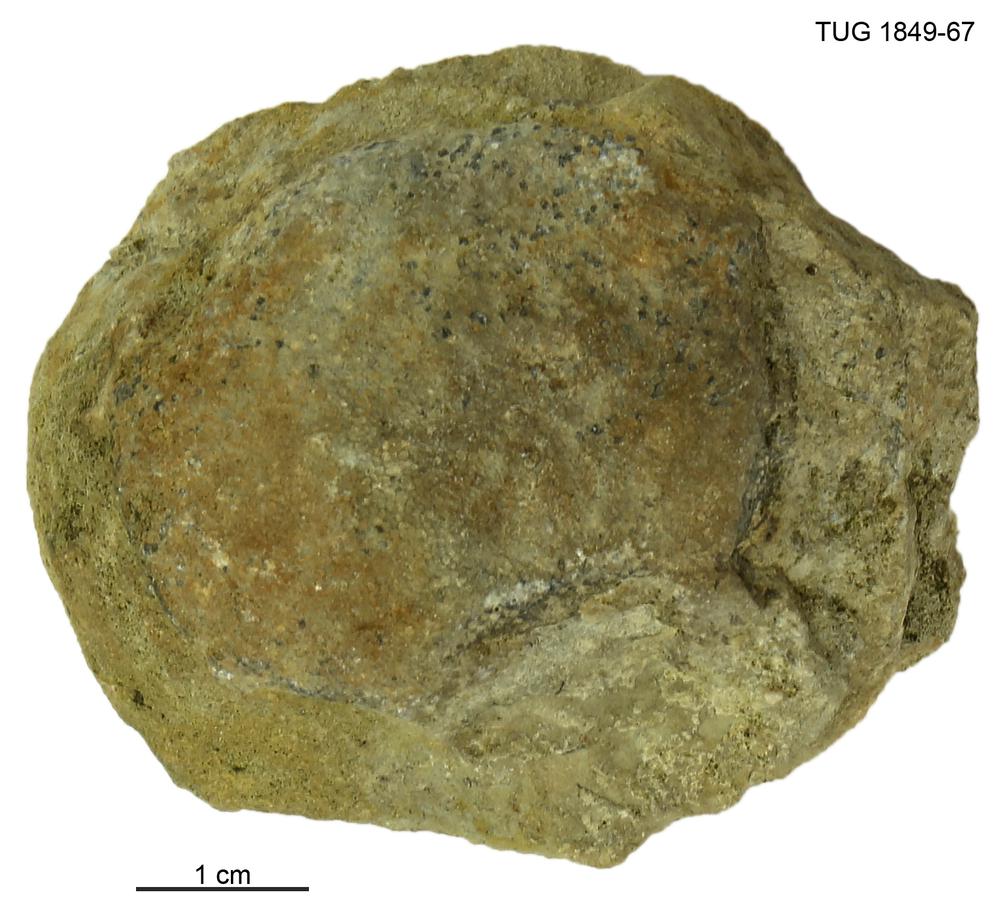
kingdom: Animalia
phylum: Bryozoa
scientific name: Bryozoa
